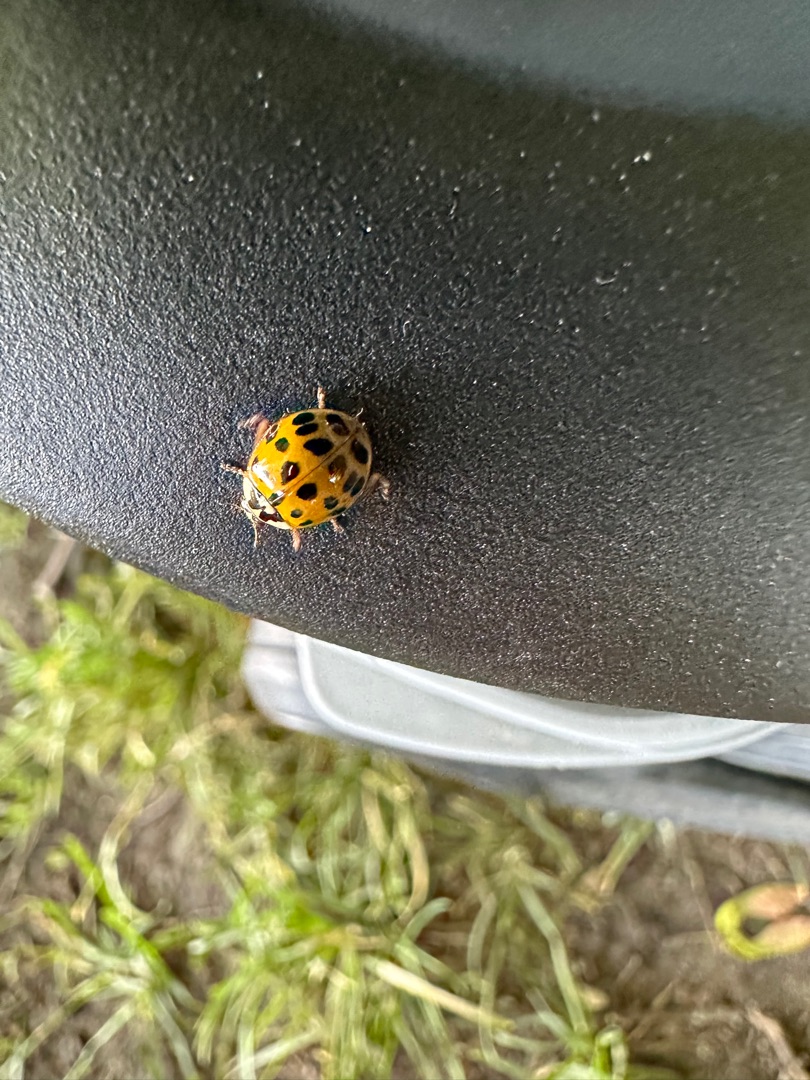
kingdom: Animalia
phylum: Arthropoda
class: Insecta
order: Coleoptera
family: Coccinellidae
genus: Harmonia
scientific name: Harmonia axyridis
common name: Harlekinmariehøne
